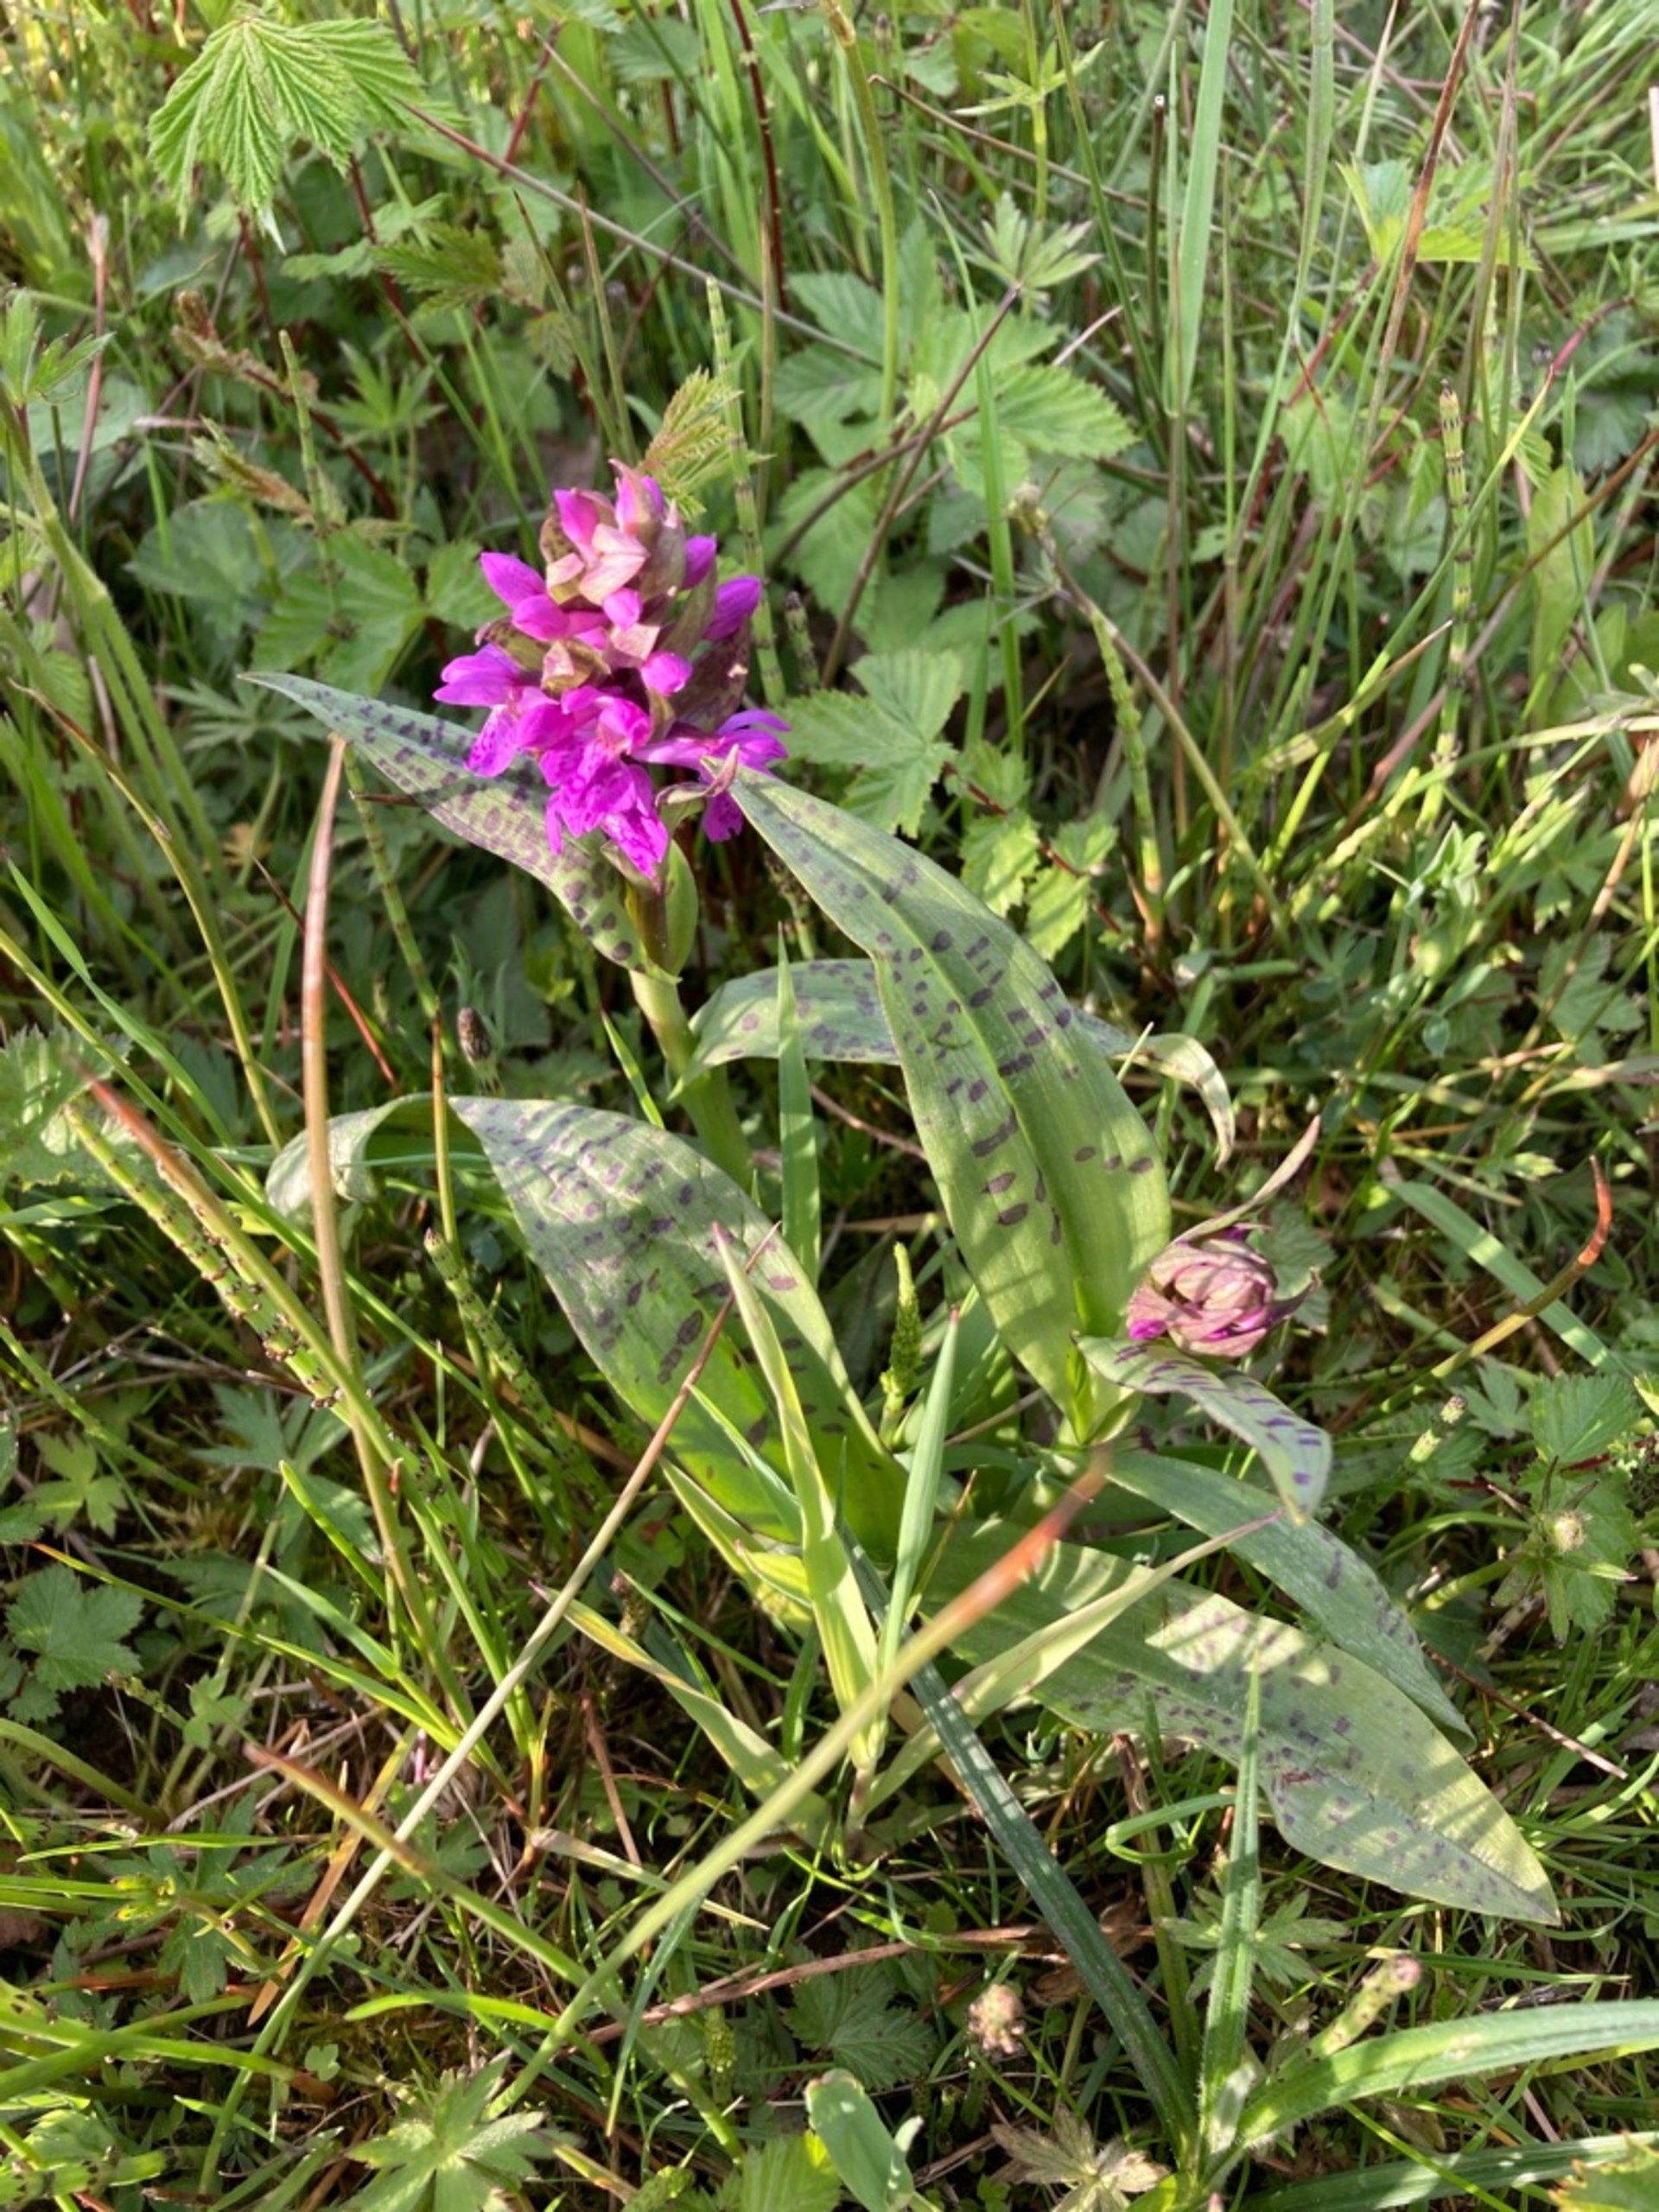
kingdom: Plantae
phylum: Tracheophyta
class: Liliopsida
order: Asparagales
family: Orchidaceae
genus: Dactylorhiza
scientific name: Dactylorhiza majalis
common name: Maj-gøgeurt
